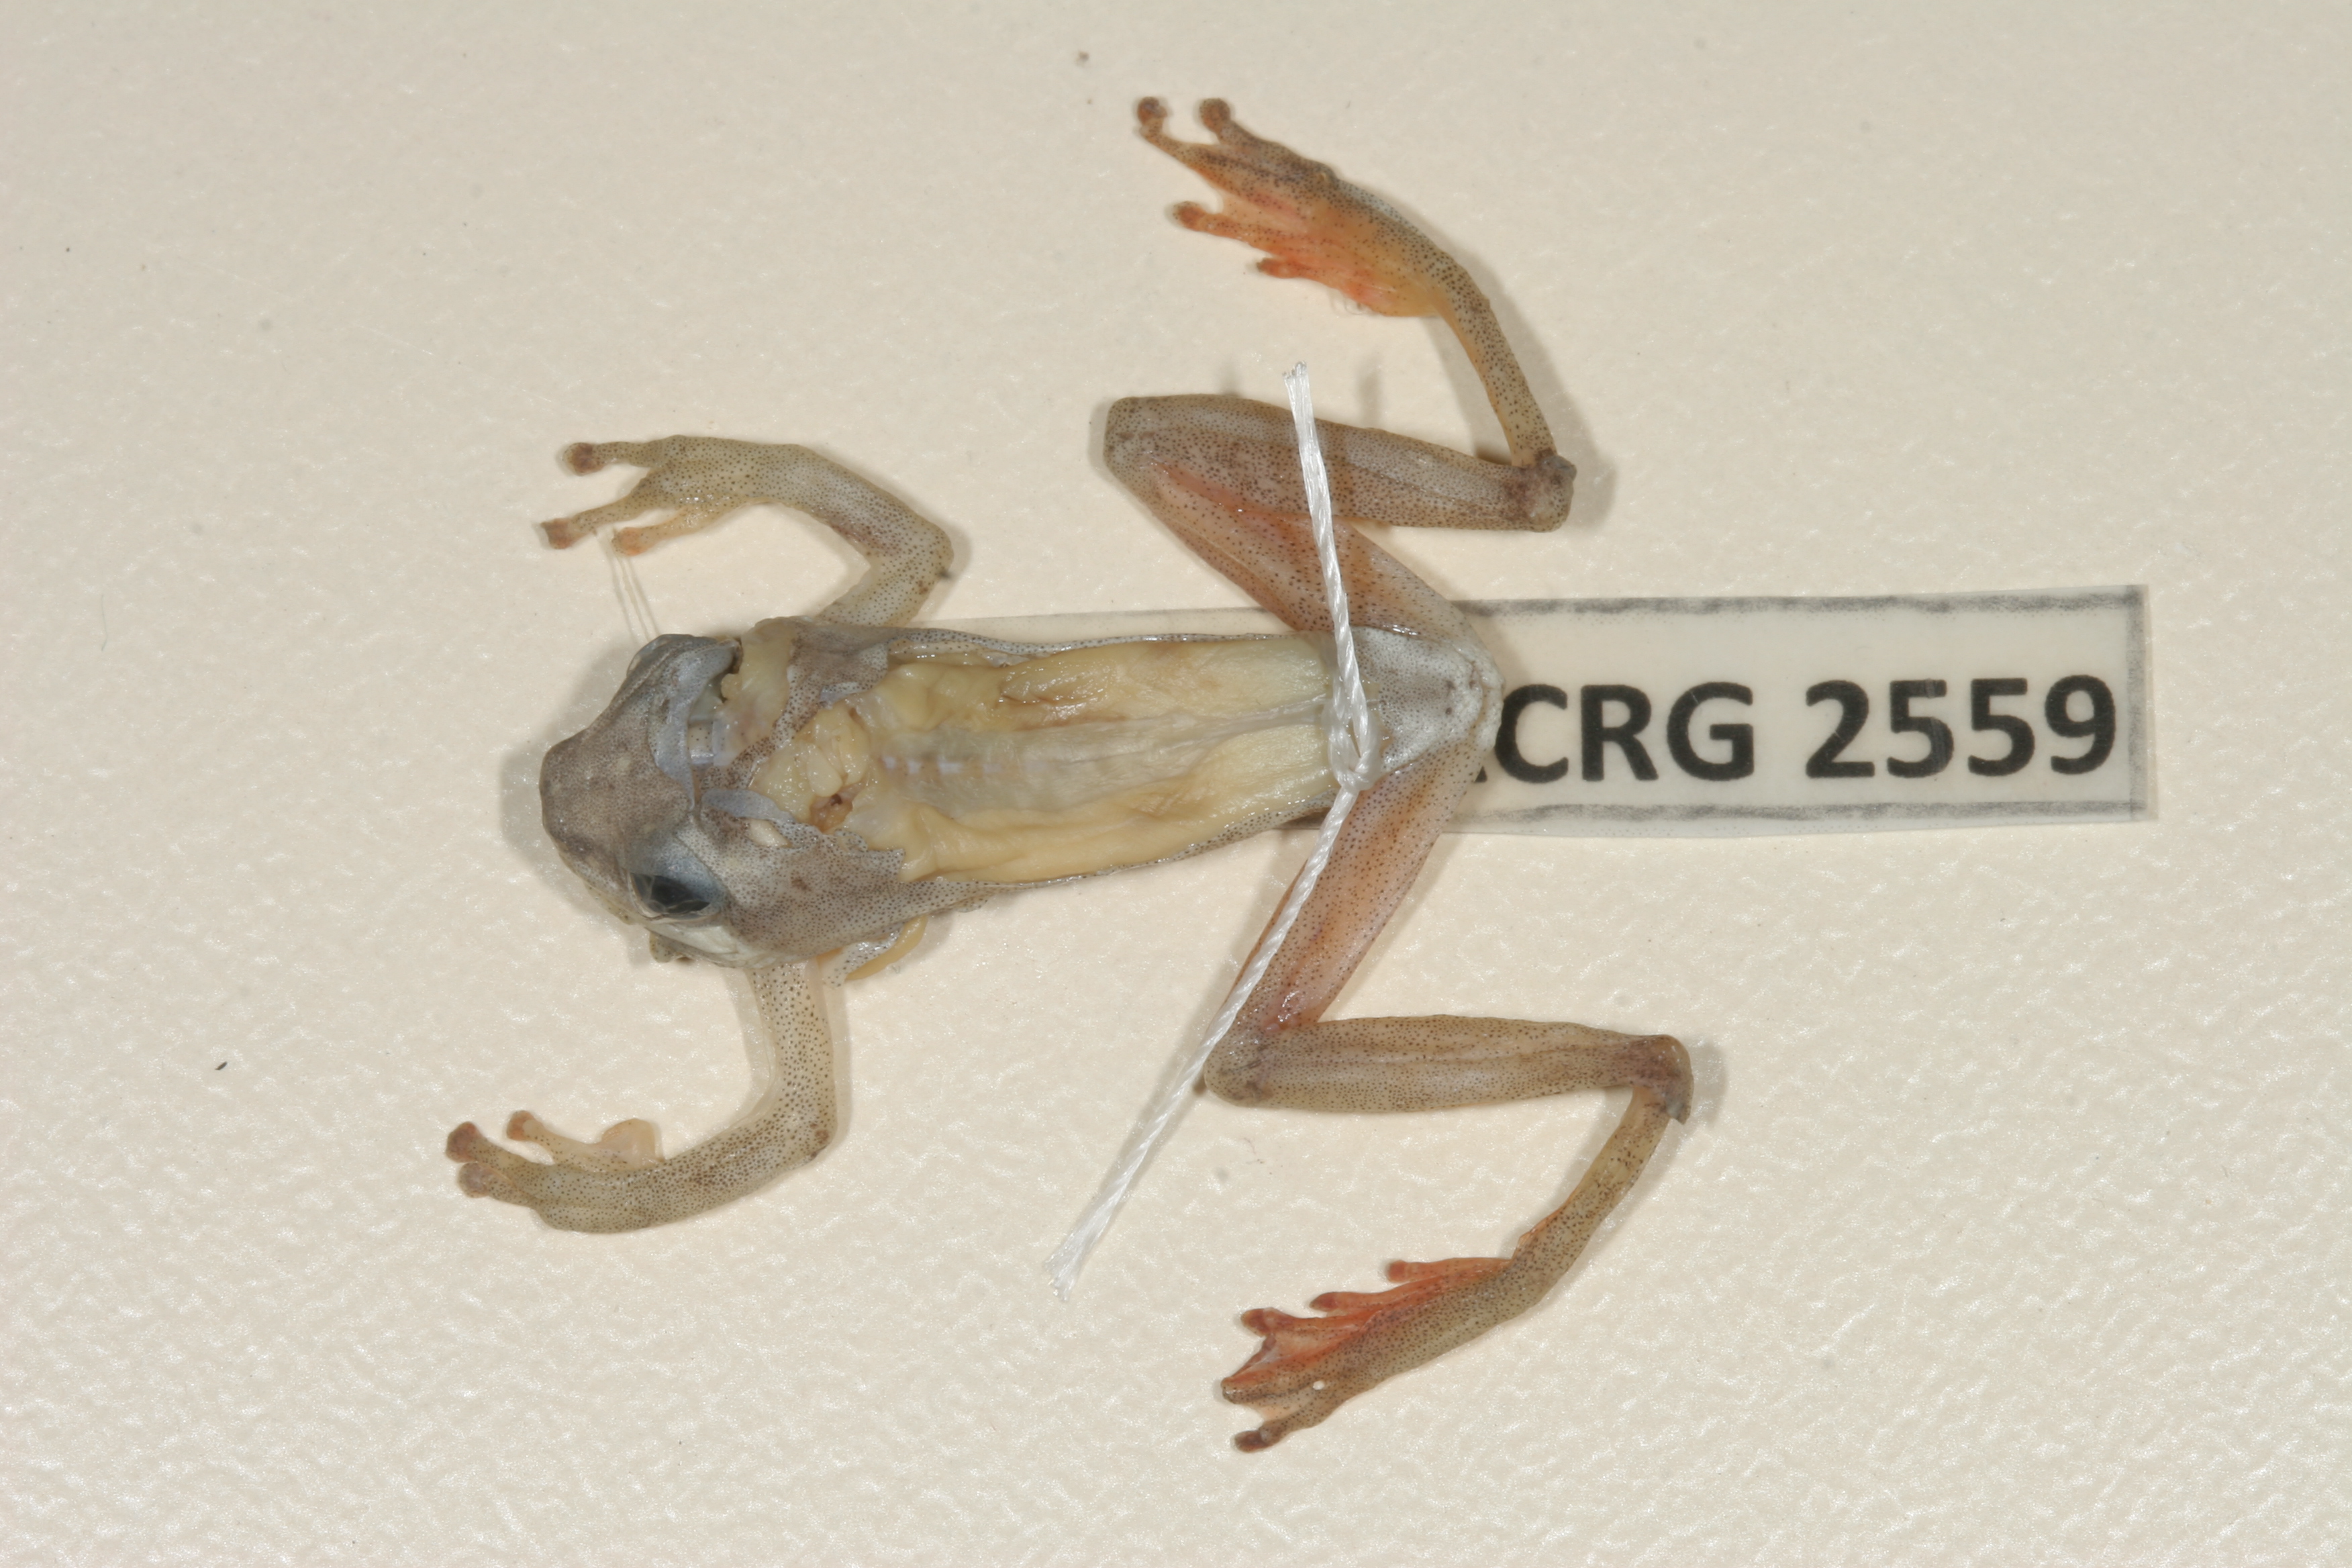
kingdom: Animalia
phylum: Chordata
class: Amphibia
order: Anura
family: Hyperoliidae
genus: Hyperolius
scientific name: Hyperolius marmoratus
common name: Painted reed frog
